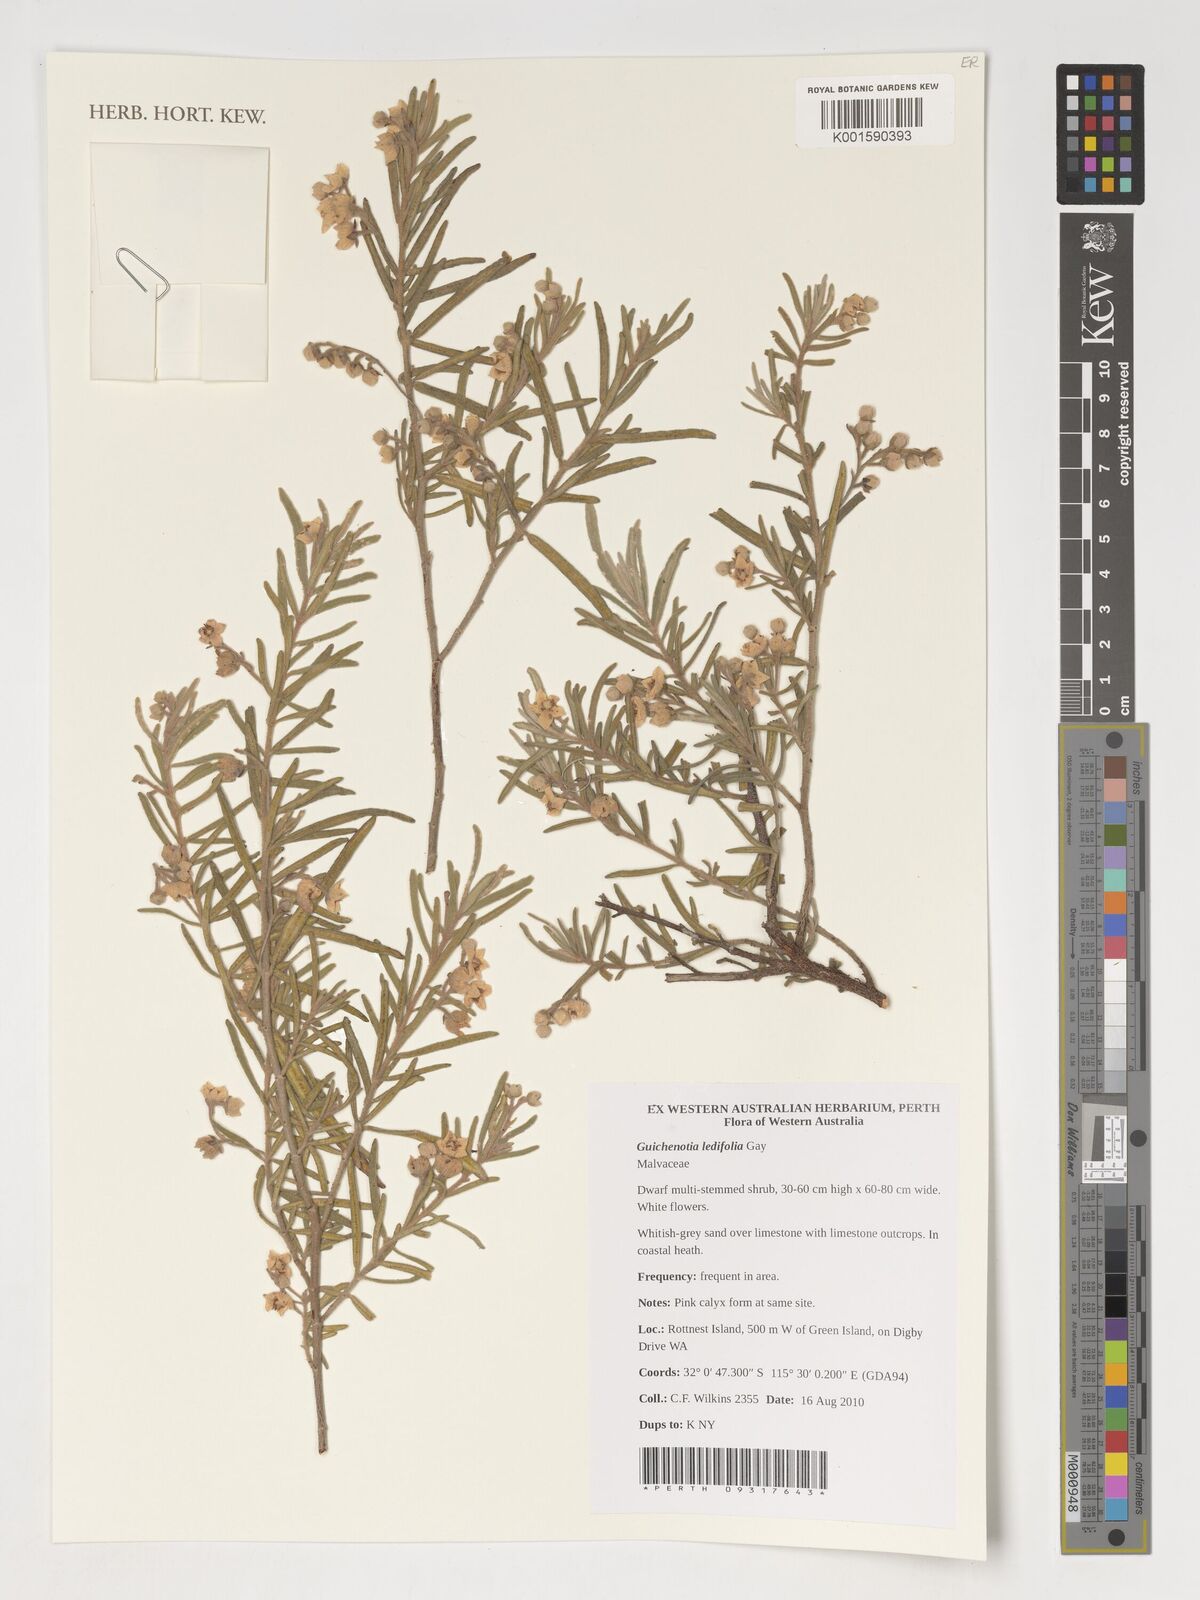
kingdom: Plantae
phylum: Tracheophyta
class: Magnoliopsida
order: Malvales
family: Malvaceae
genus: Guichenotia
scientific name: Guichenotia ledifolia
